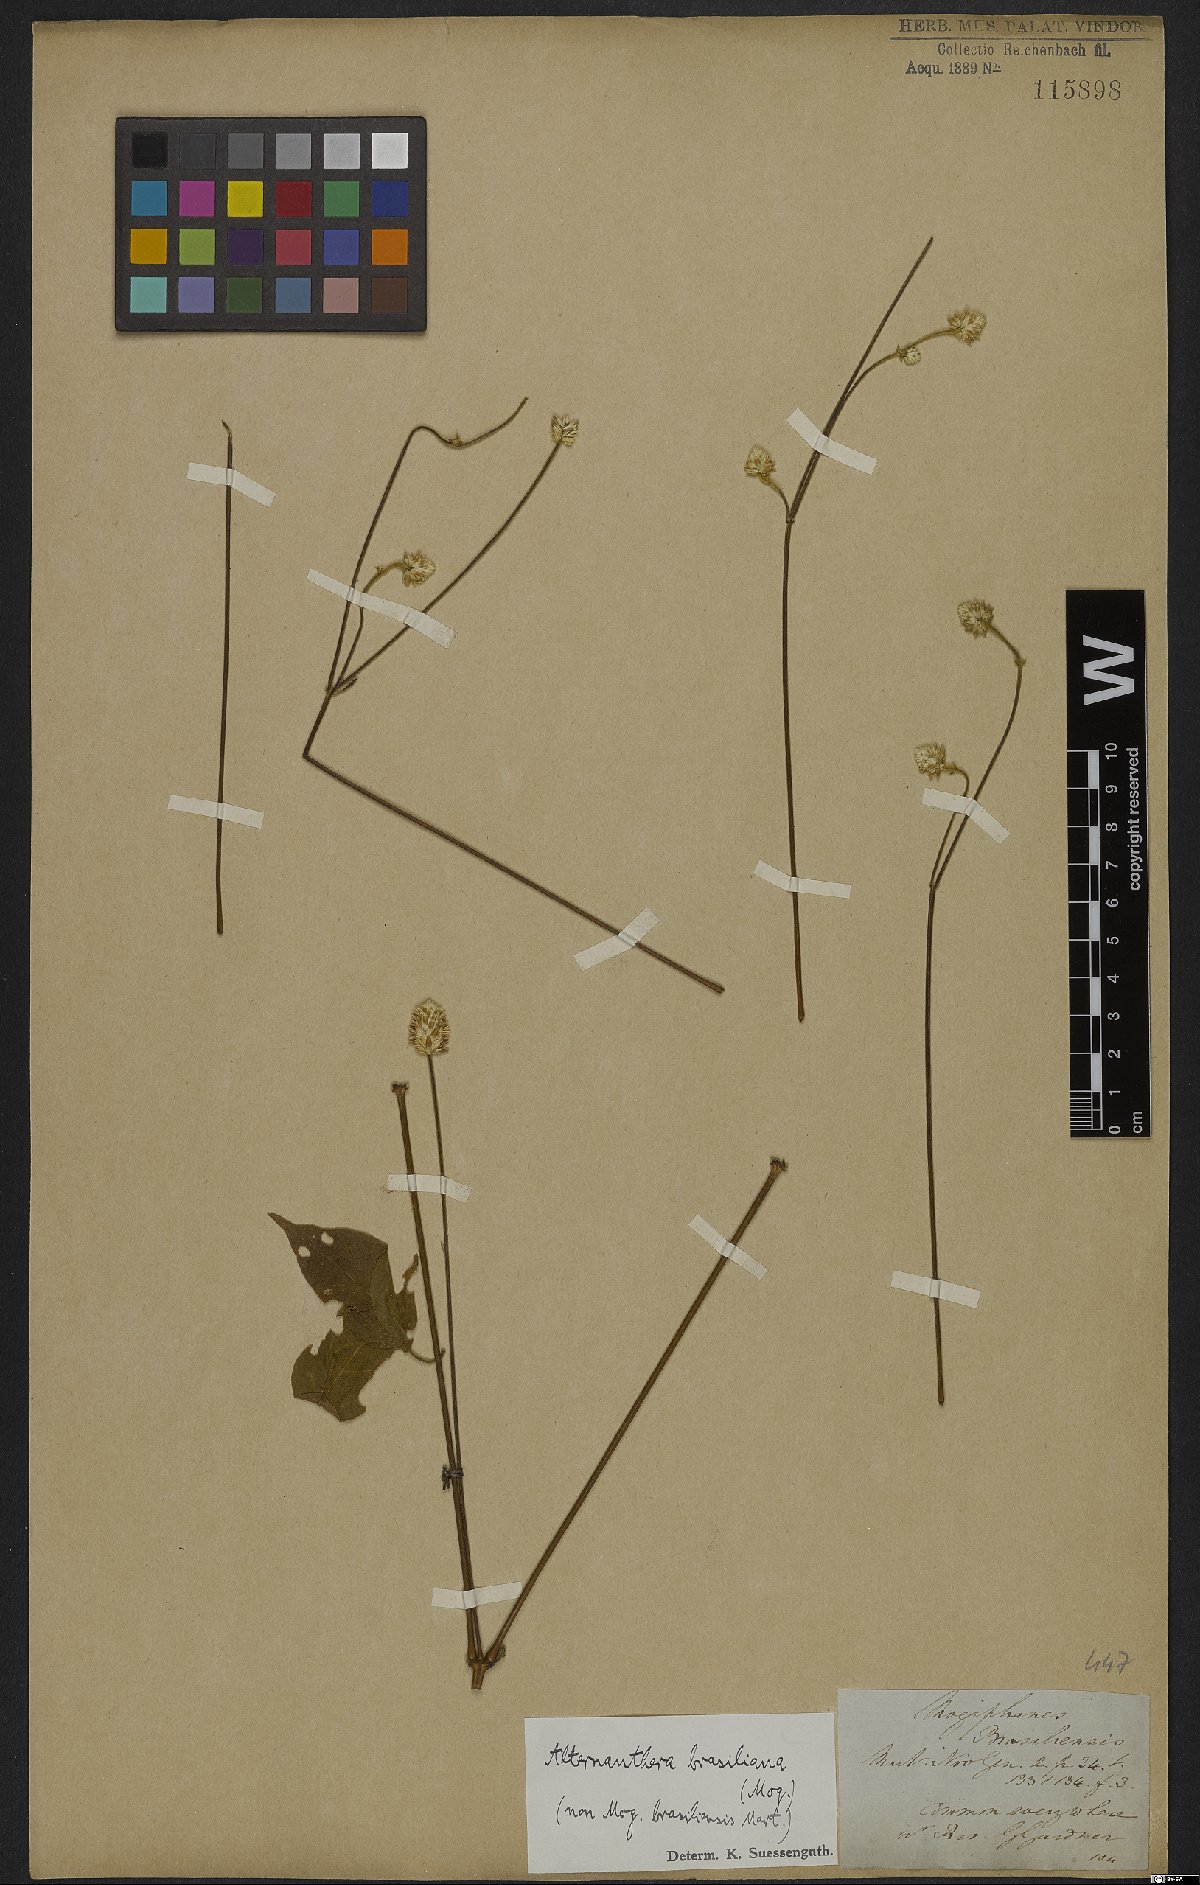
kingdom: Plantae
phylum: Tracheophyta
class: Magnoliopsida
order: Caryophyllales
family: Amaranthaceae
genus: Alternanthera
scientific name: Alternanthera brasiliana
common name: Brazilian joyweed
